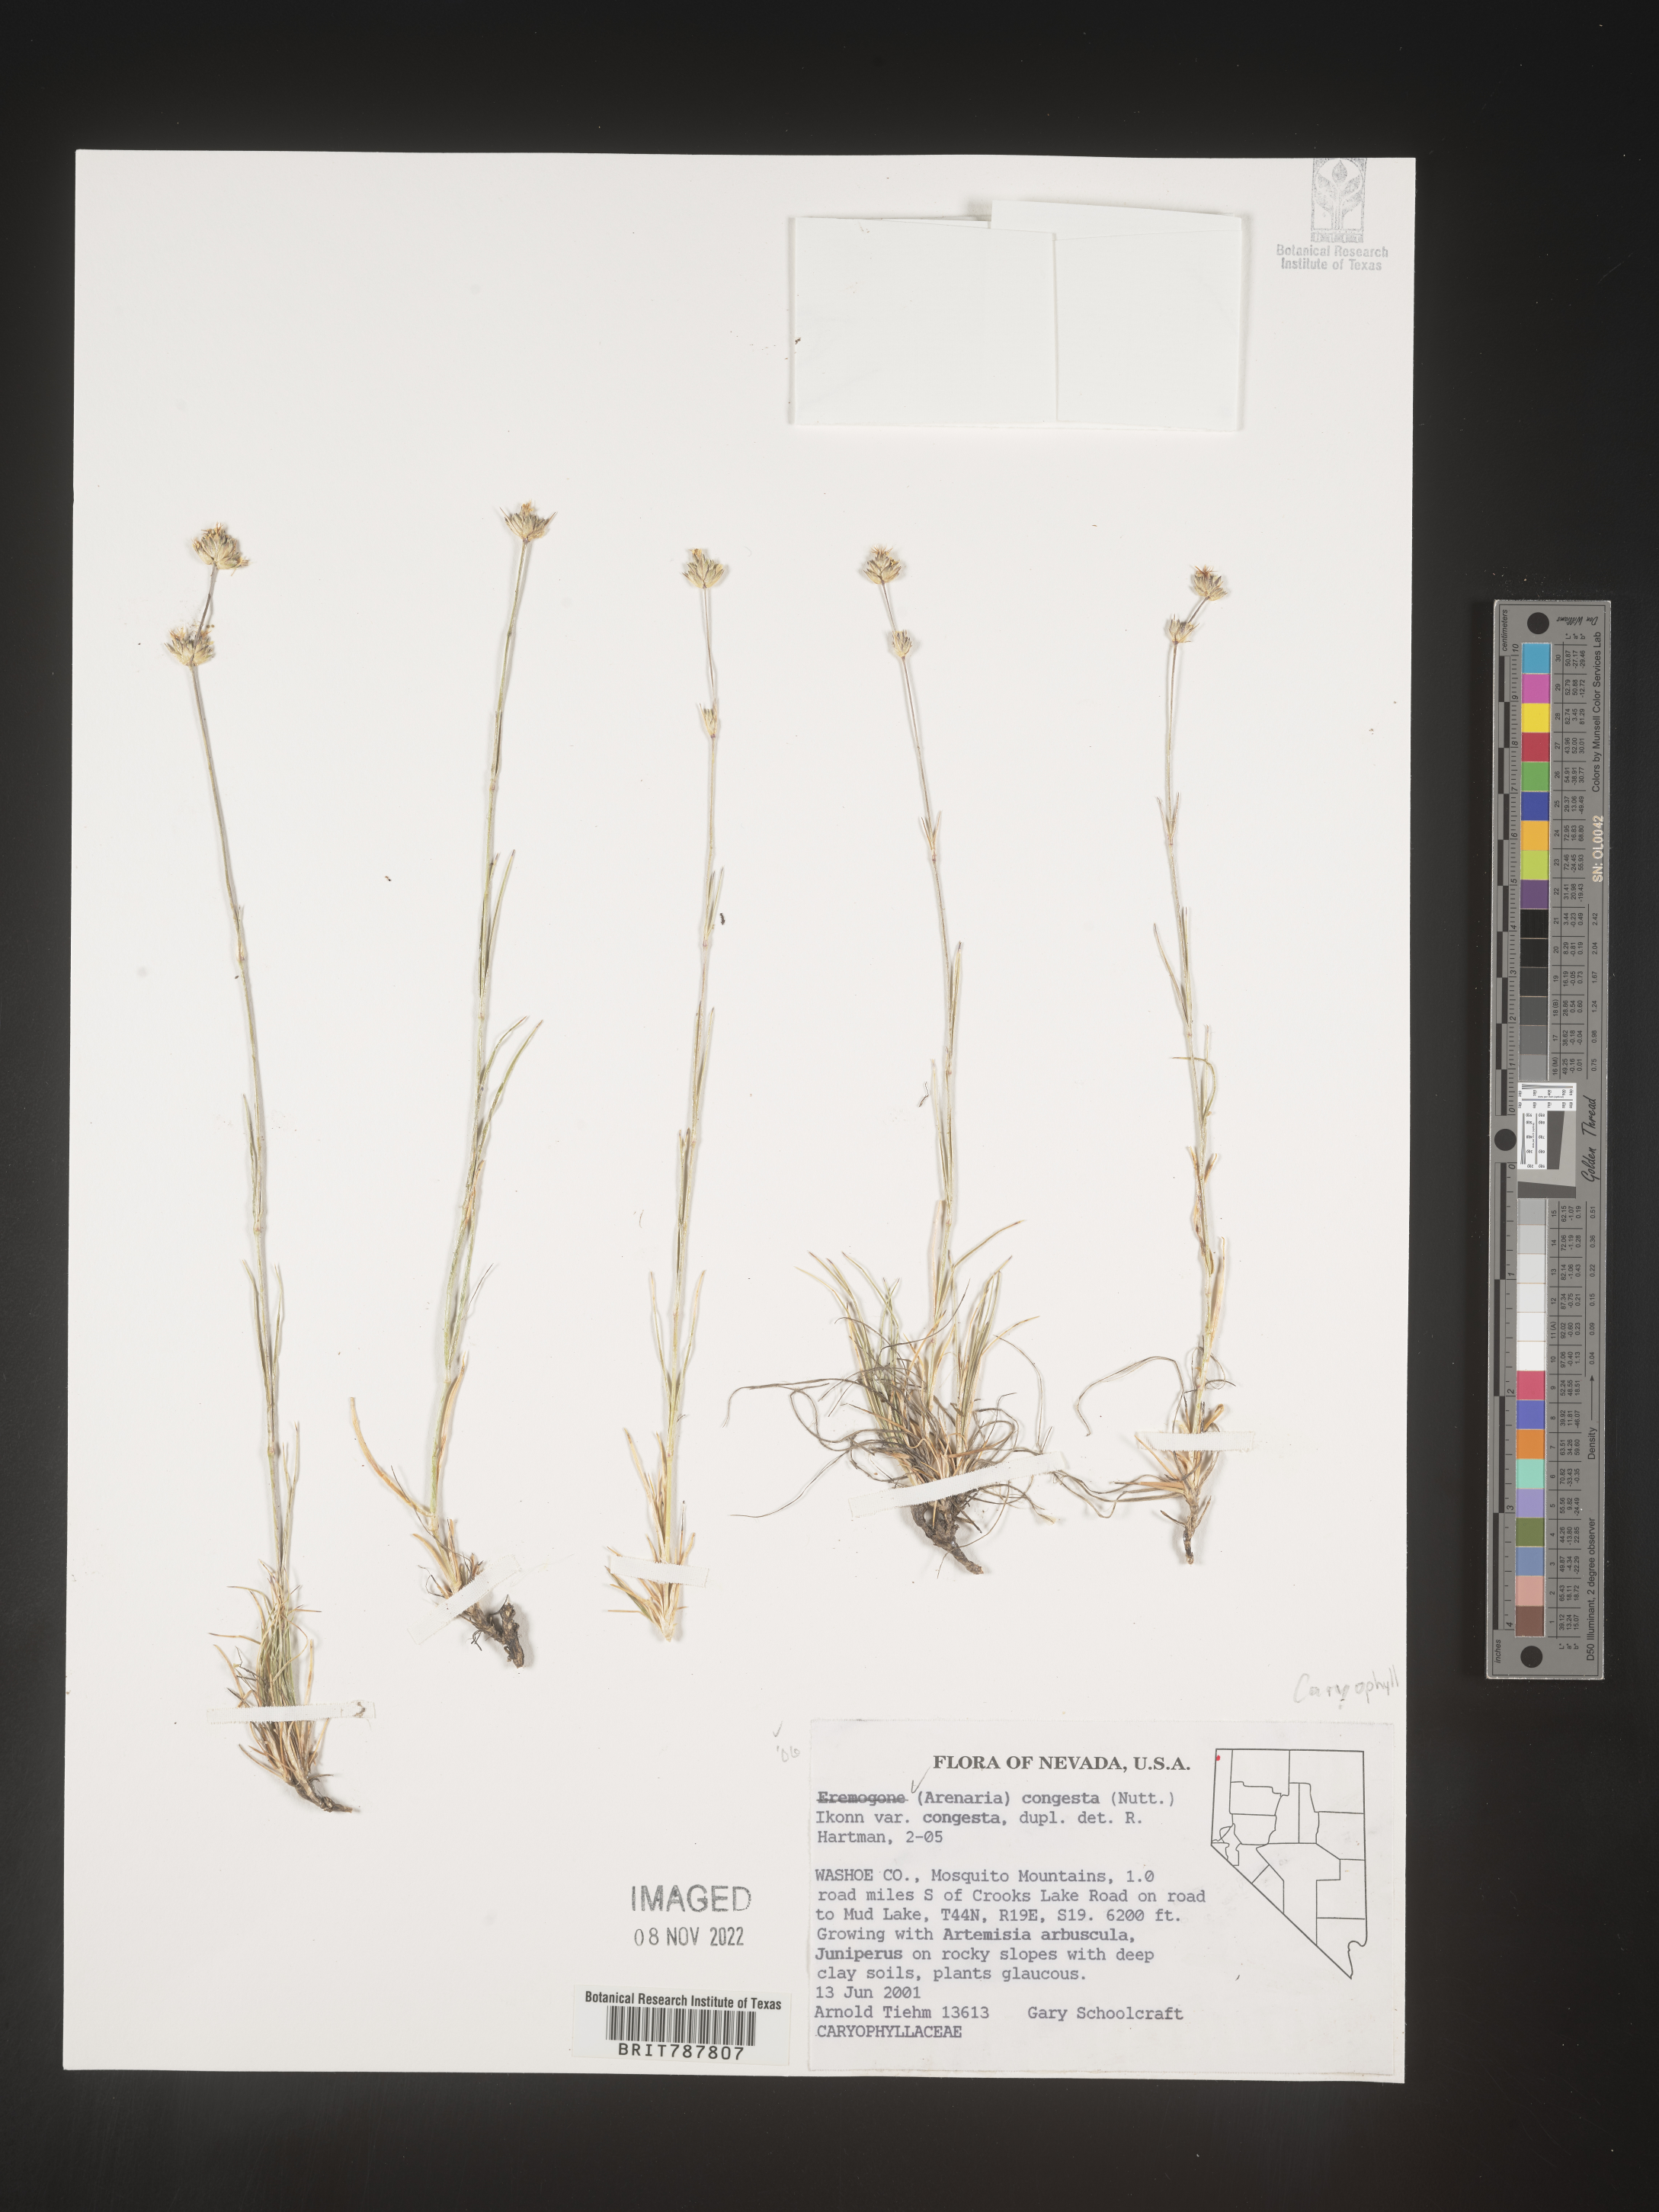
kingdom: Plantae
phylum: Tracheophyta
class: Magnoliopsida
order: Caryophyllales
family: Caryophyllaceae
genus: Eremogone
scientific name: Eremogone congesta
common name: Ballhead sandwort
